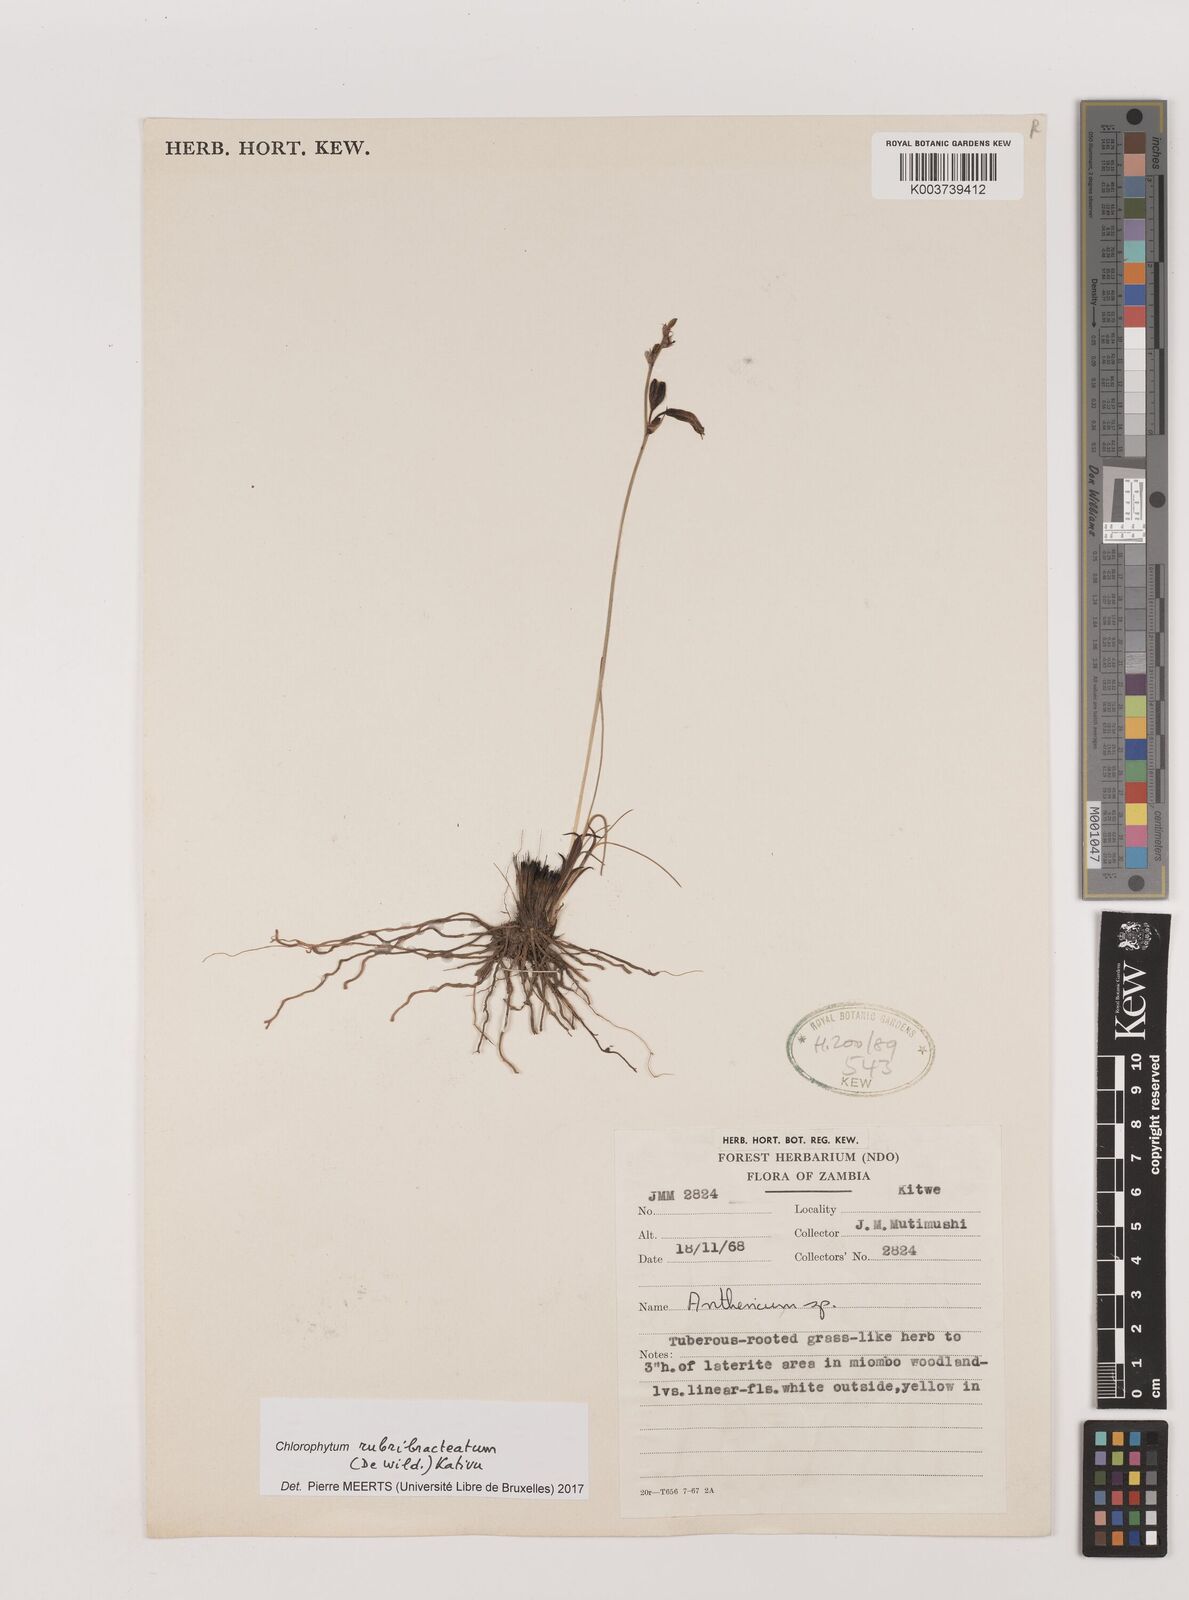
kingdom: Plantae
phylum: Tracheophyta
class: Liliopsida
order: Asparagales
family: Asparagaceae
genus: Chlorophytum
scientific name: Chlorophytum rubribracteatum
